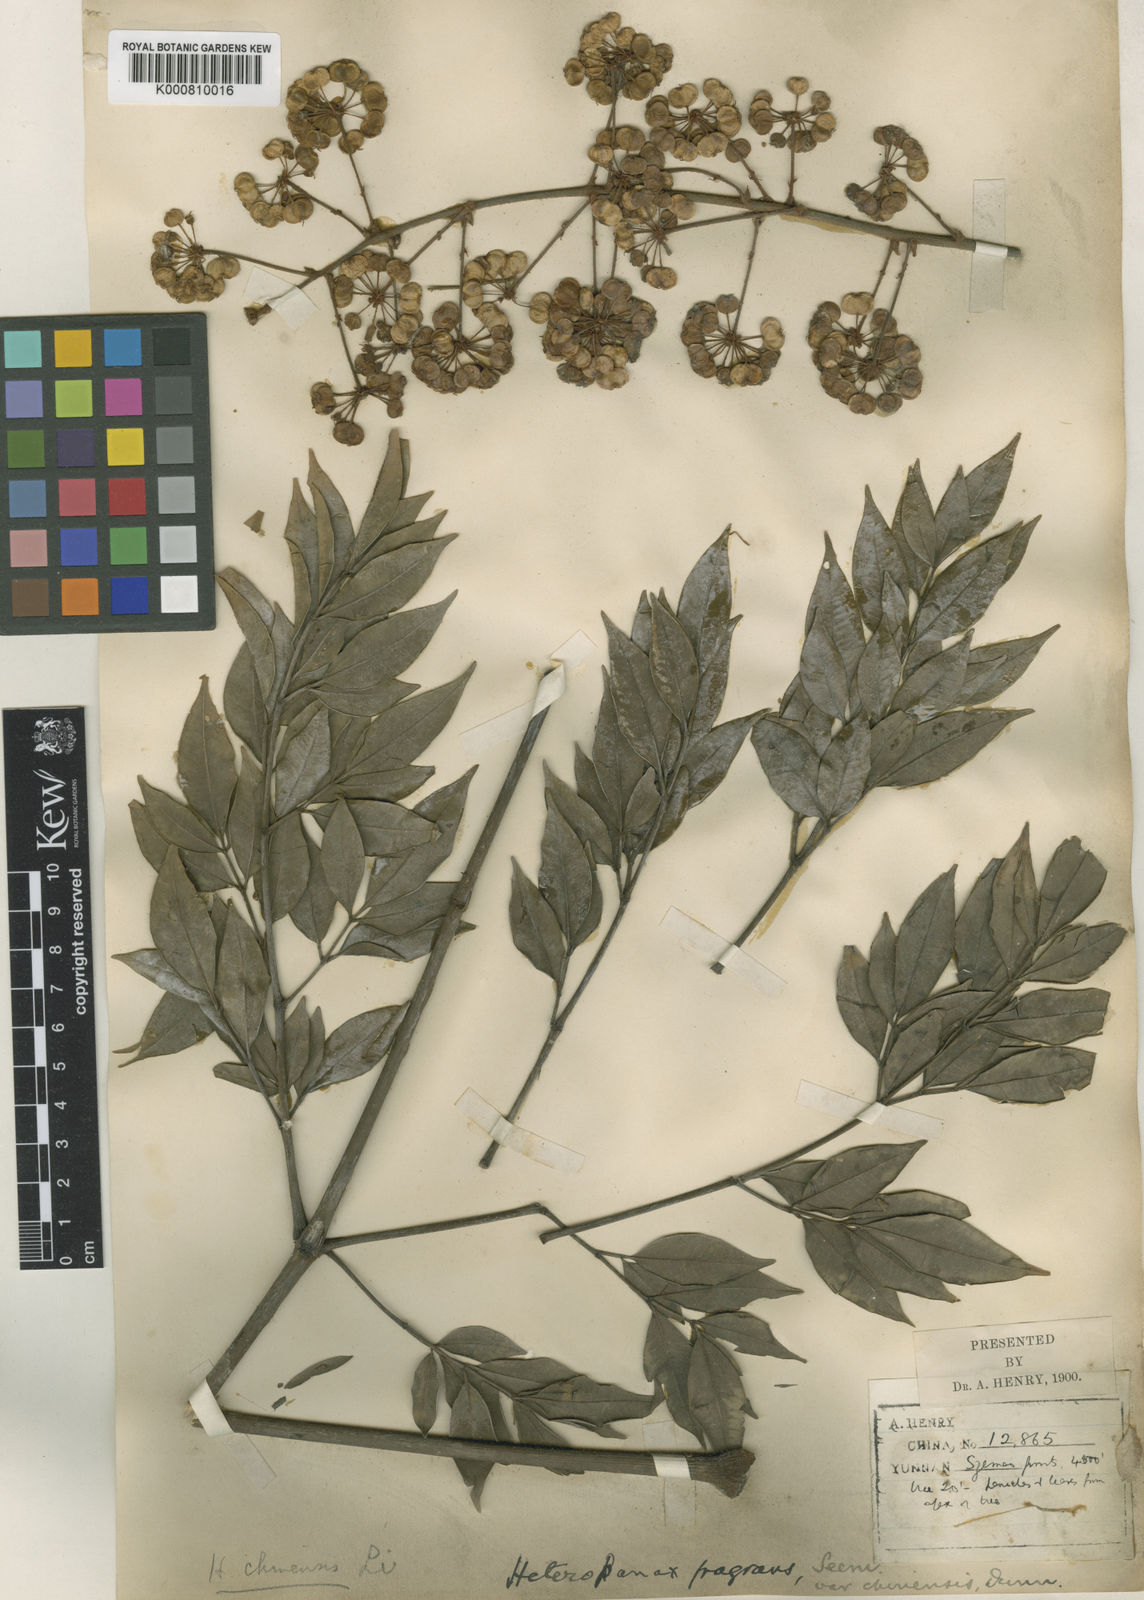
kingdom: Plantae
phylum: Tracheophyta
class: Magnoliopsida
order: Apiales
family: Araliaceae
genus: Heteropanax
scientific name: Heteropanax chinensis
